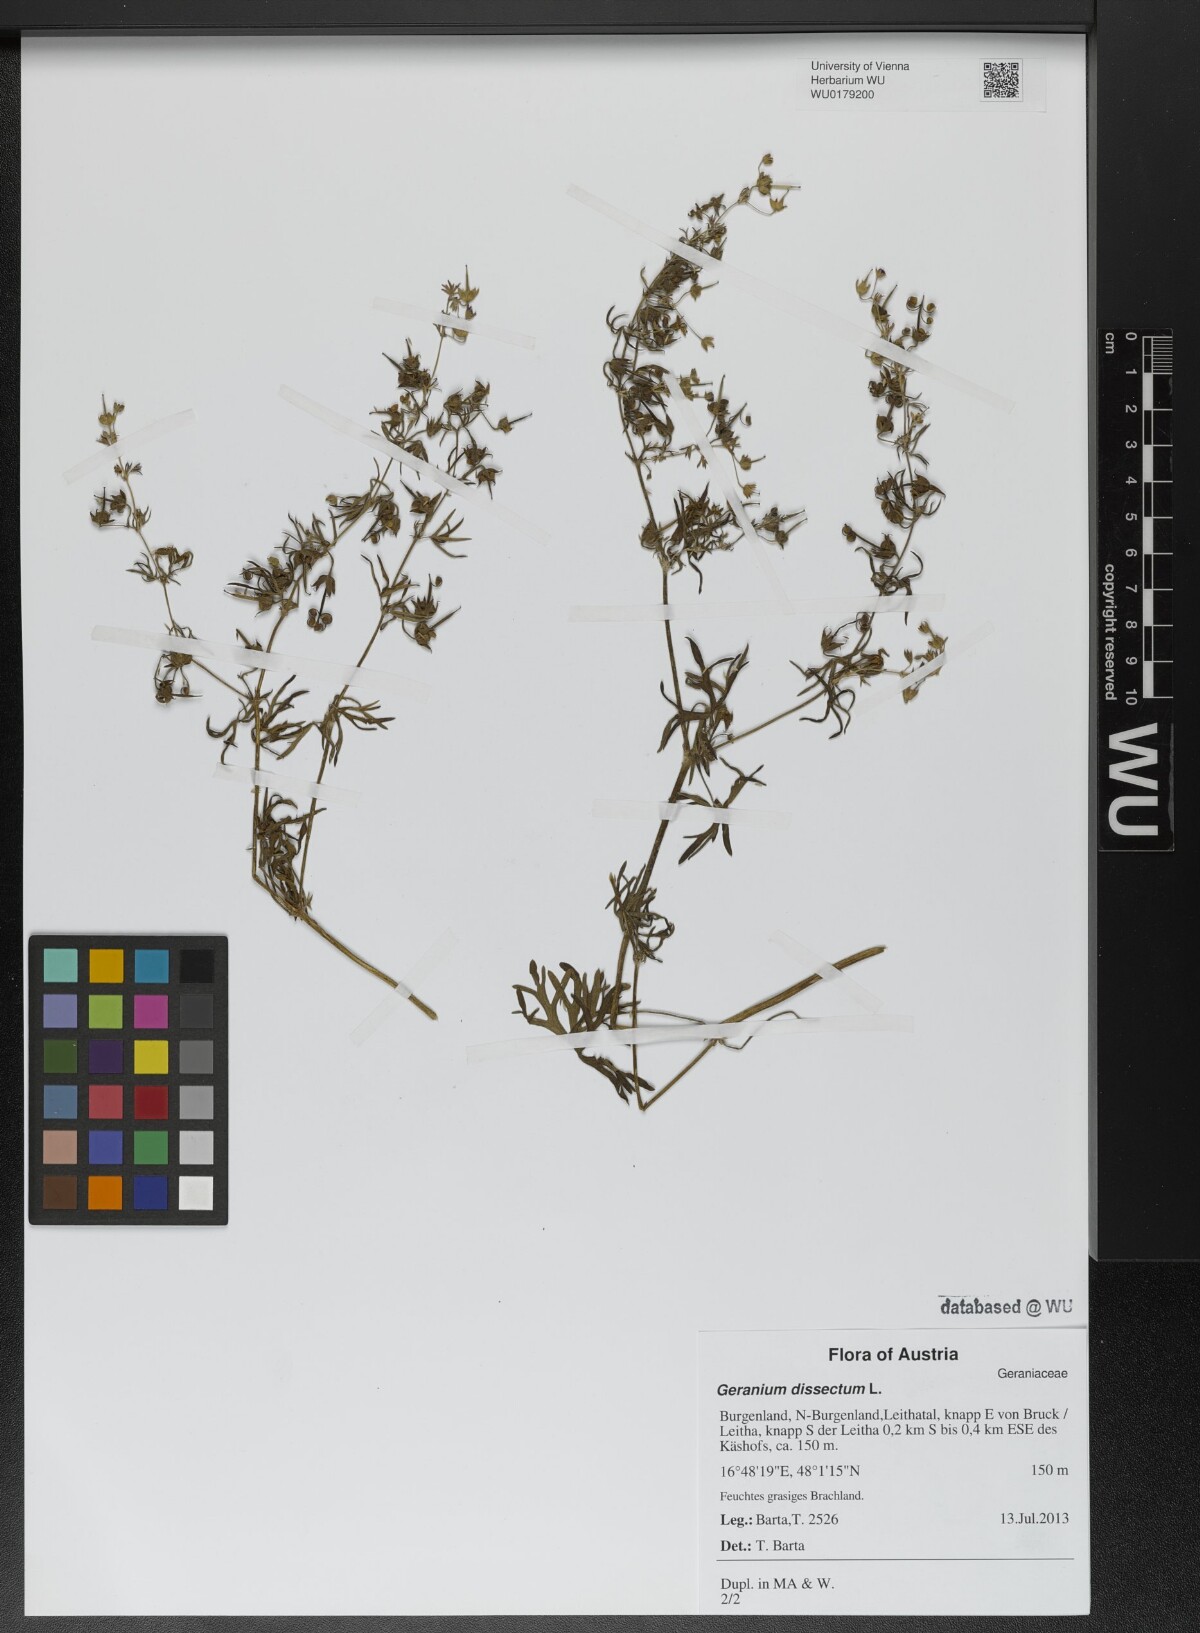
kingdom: Plantae
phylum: Tracheophyta
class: Magnoliopsida
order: Geraniales
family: Geraniaceae
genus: Geranium
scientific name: Geranium dissectum
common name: Cut-leaved crane's-bill
